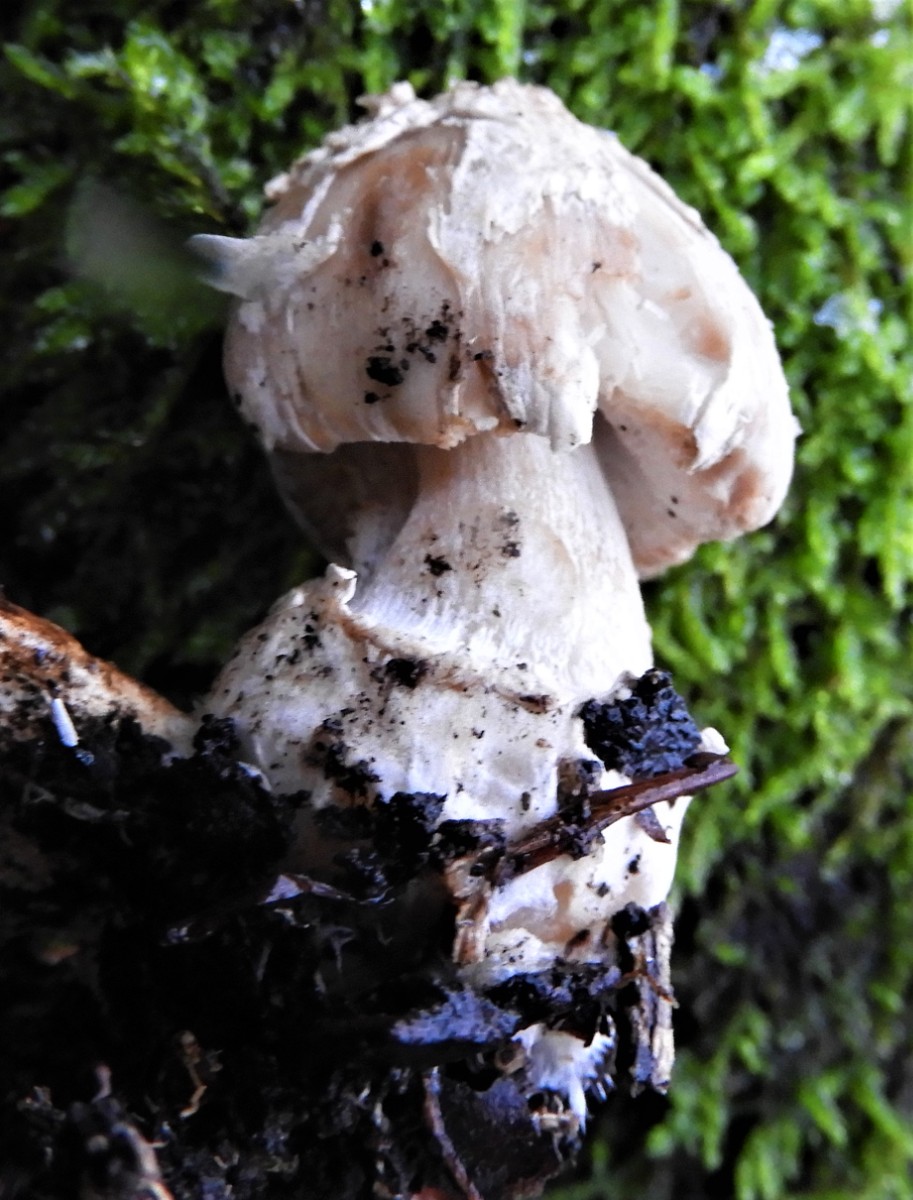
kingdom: Fungi
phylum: Basidiomycota
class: Agaricomycetes
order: Agaricales
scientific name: Agaricales
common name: champignonordenen
